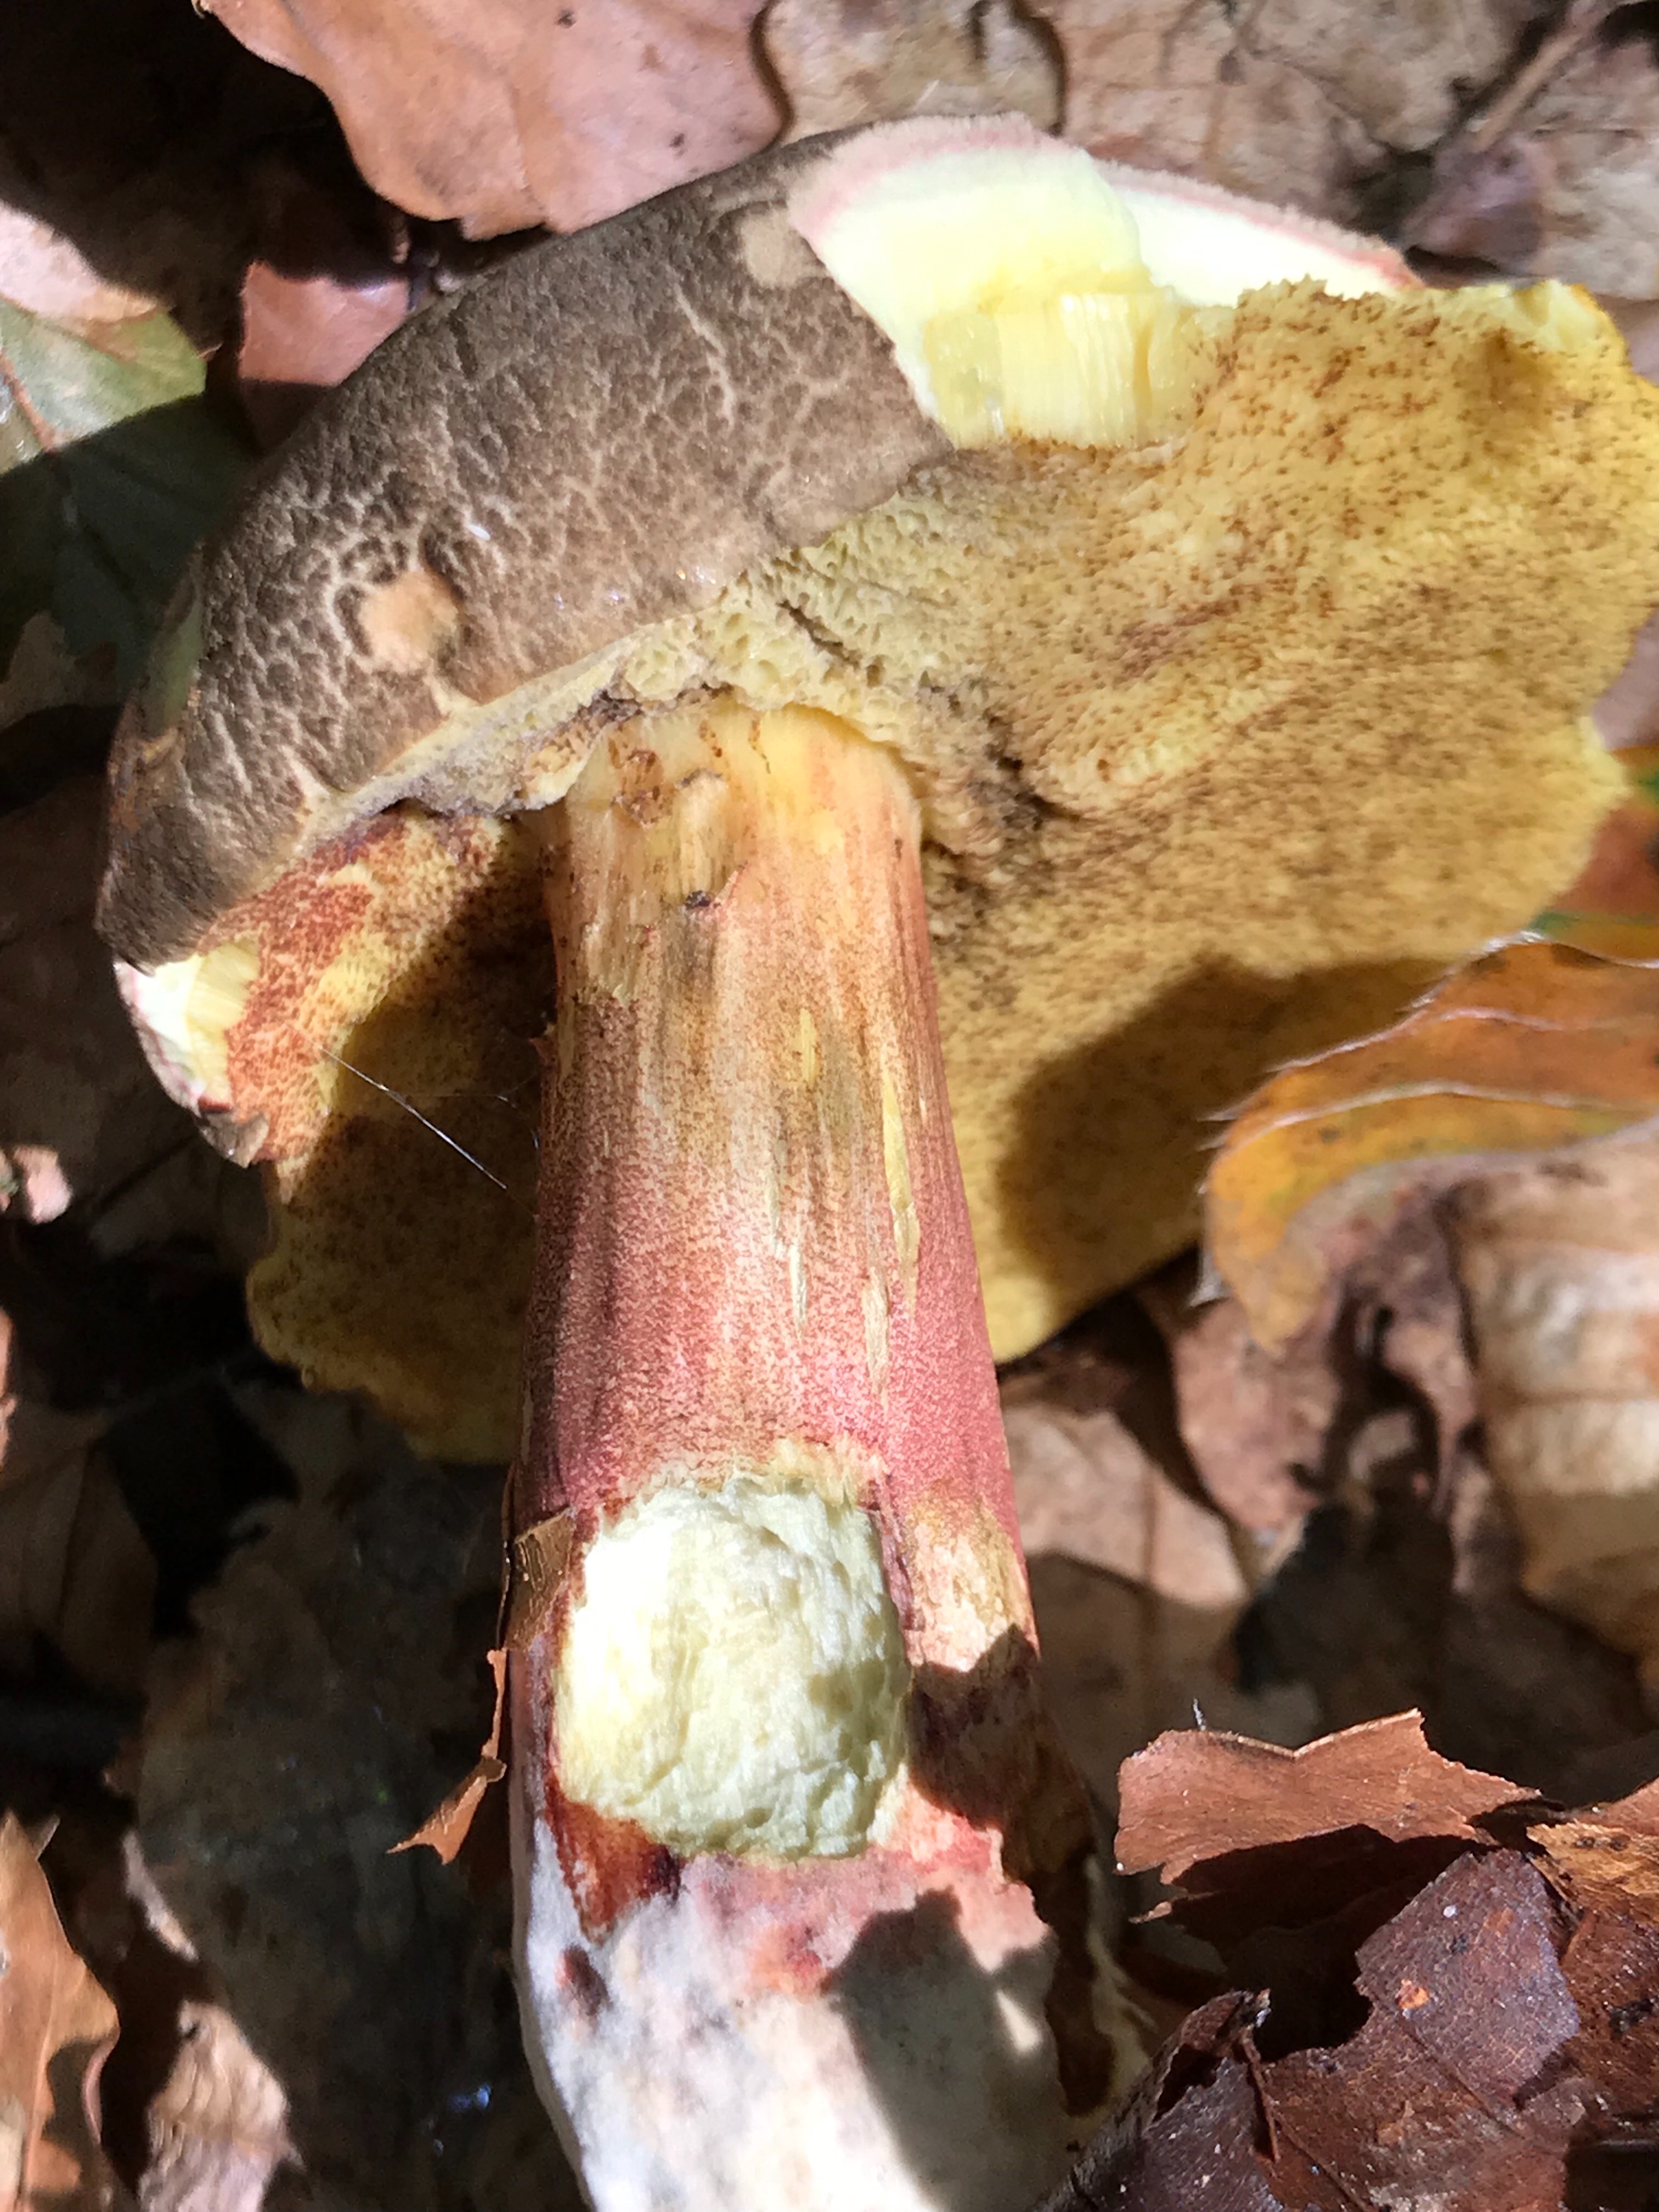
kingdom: Fungi
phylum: Basidiomycota
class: Agaricomycetes
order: Boletales
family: Boletaceae
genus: Xerocomellus
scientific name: Xerocomellus chrysenteron
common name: rødsprukken rørhat
